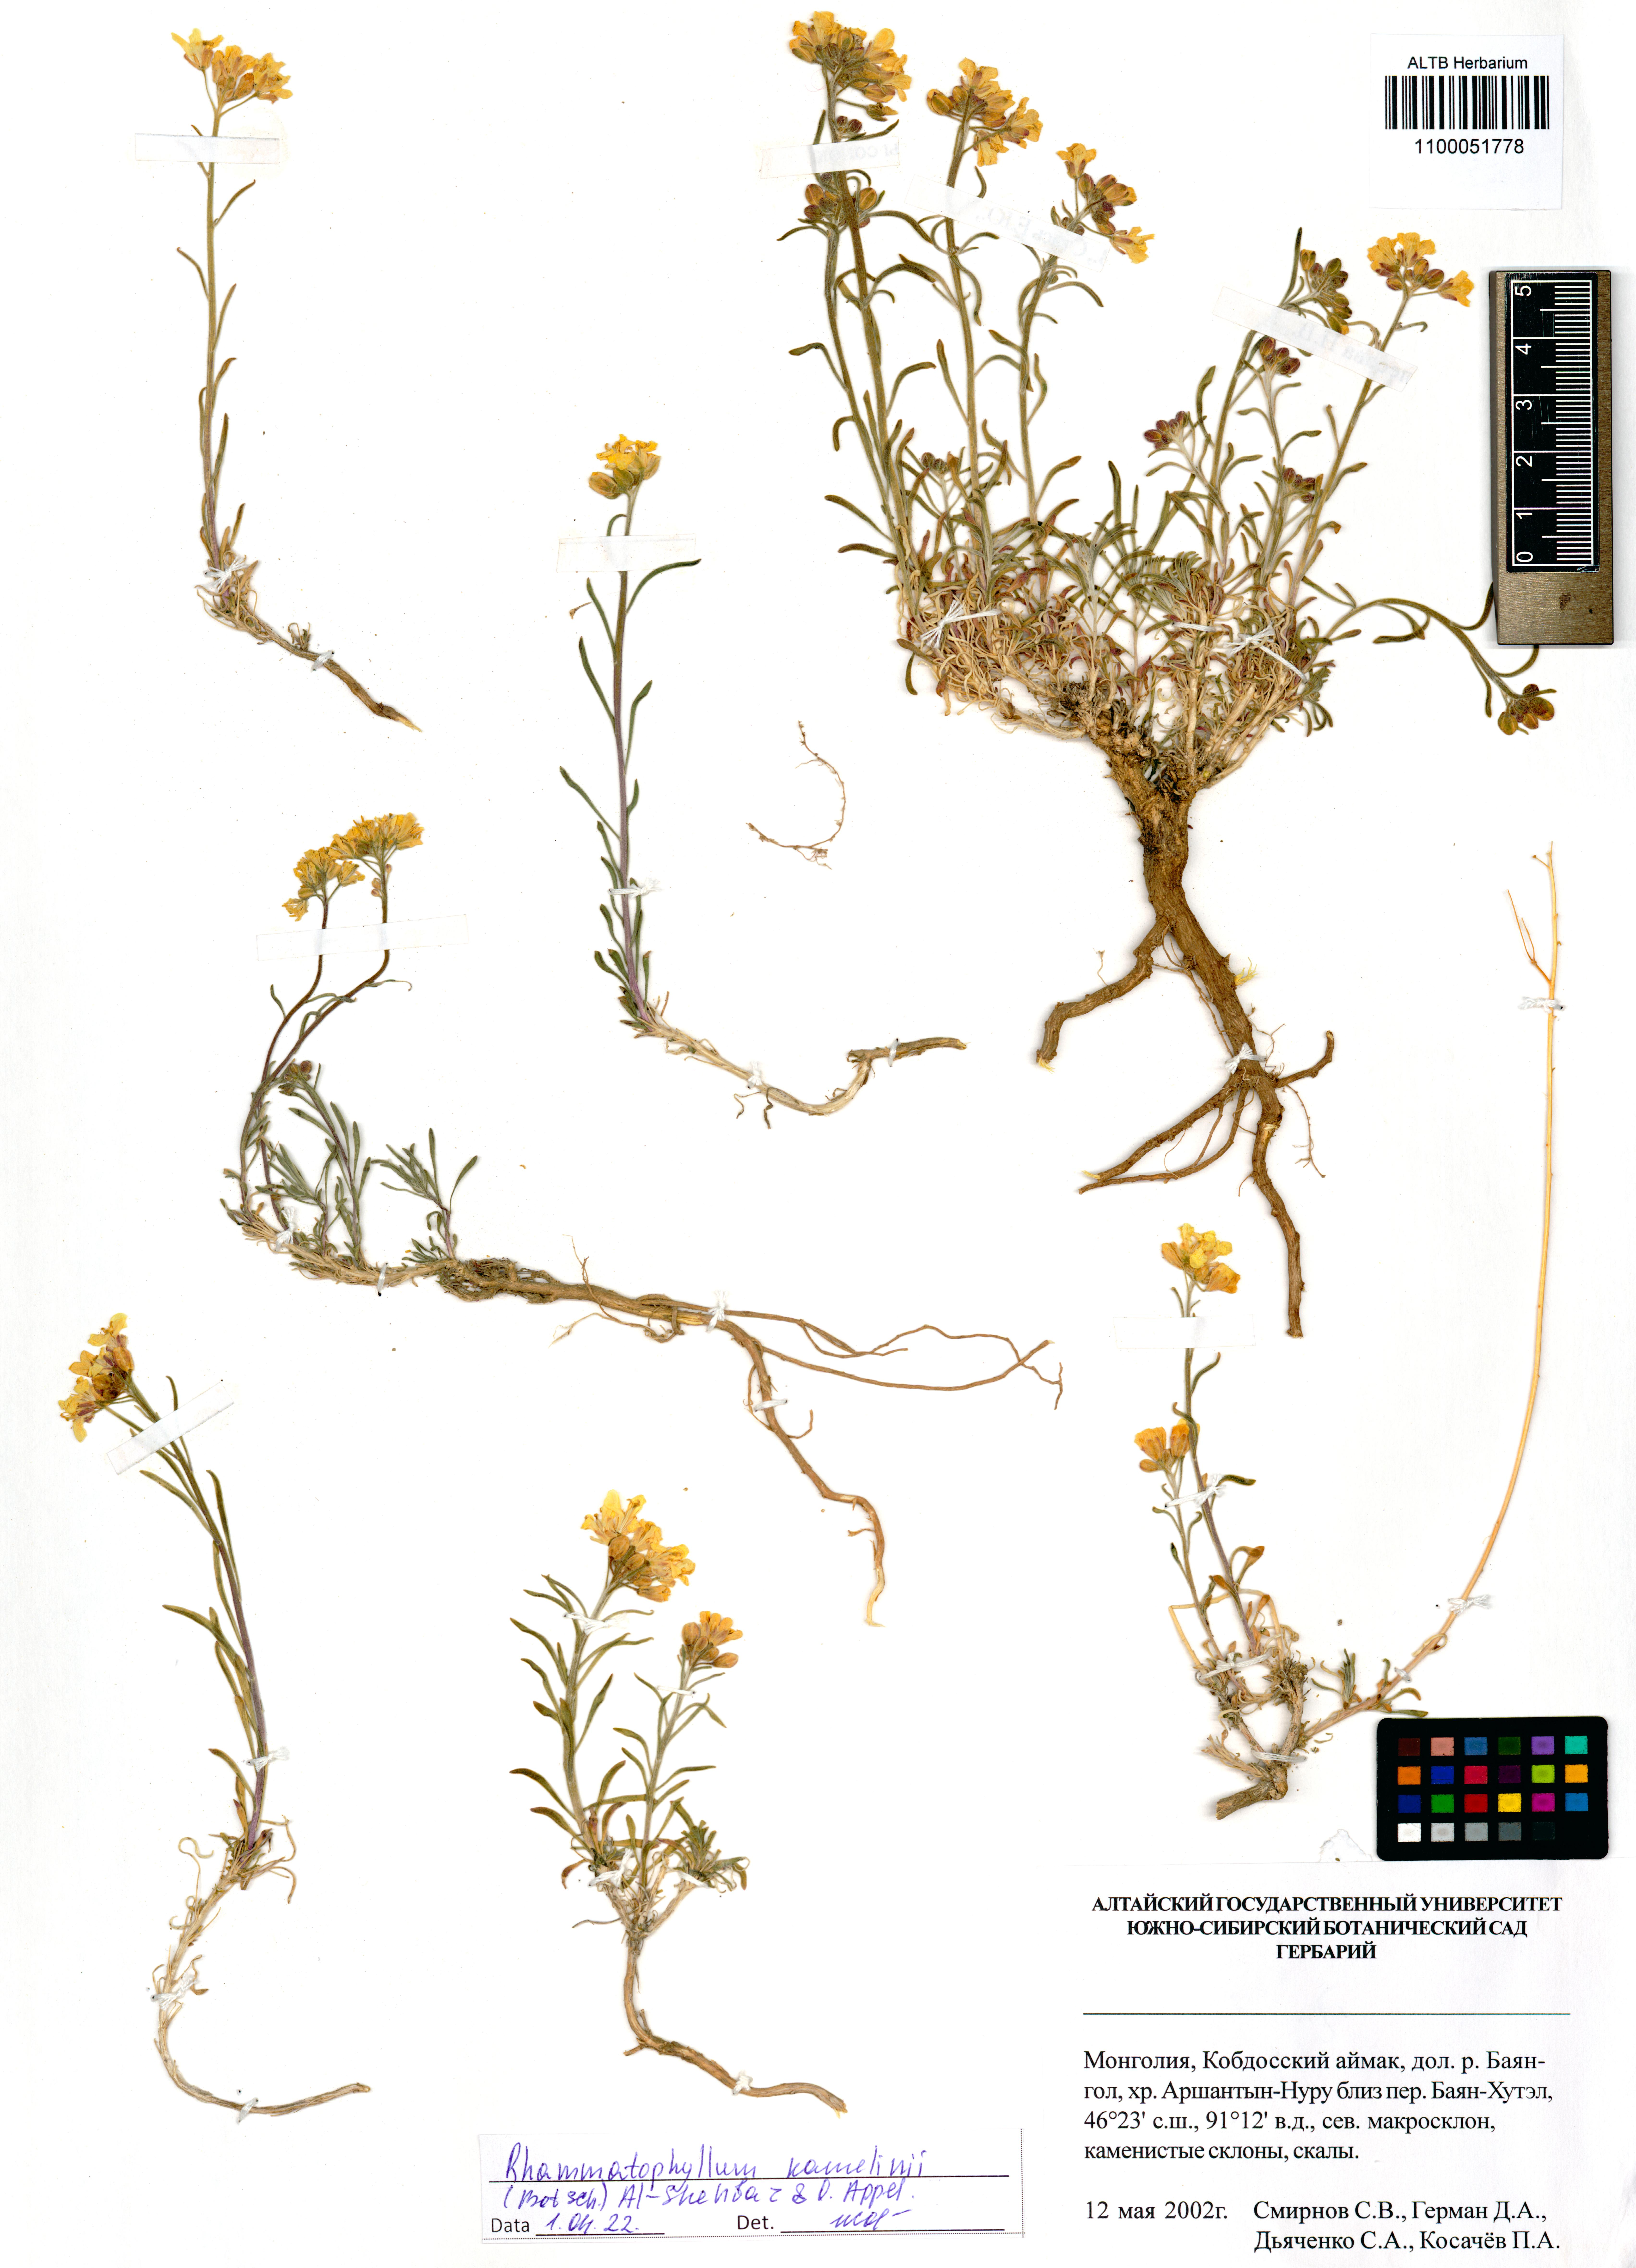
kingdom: Plantae
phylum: Tracheophyta
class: Magnoliopsida
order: Brassicales
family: Brassicaceae
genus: Rhammatophyllum
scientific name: Rhammatophyllum kamelinii
